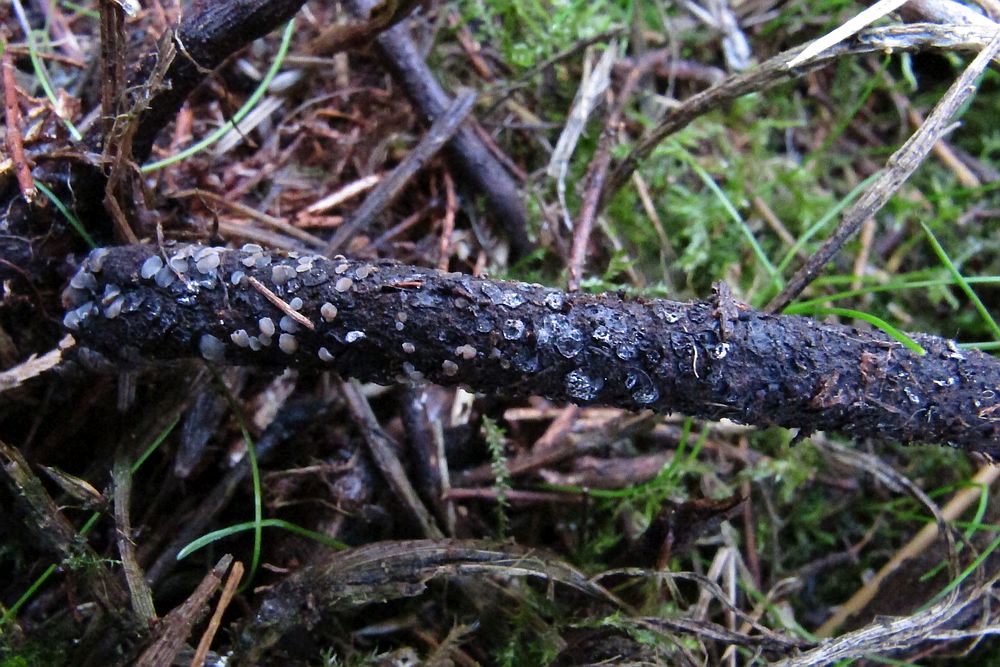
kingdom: Fungi
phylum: Ascomycota
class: Leotiomycetes
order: Helotiales
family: Mollisiaceae
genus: Tapesia
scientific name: Tapesia fusca
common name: tæppe-gråskive
